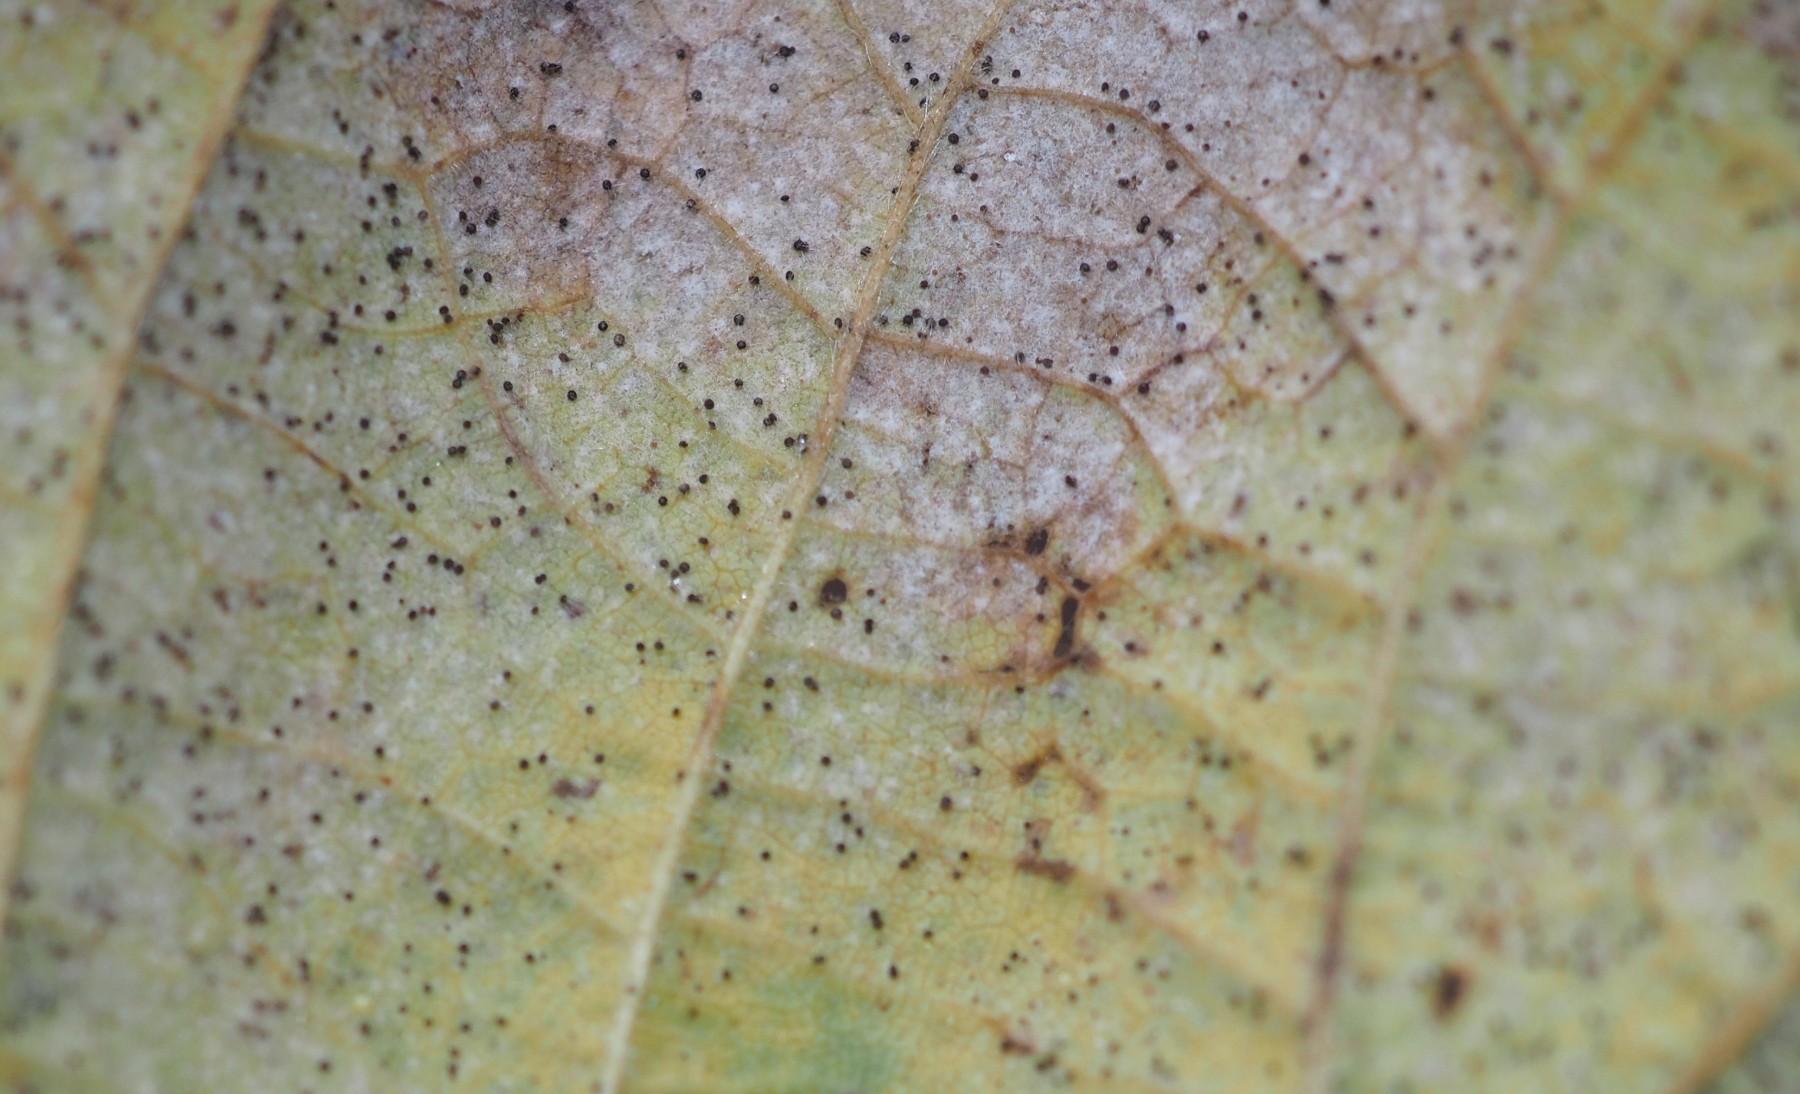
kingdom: Fungi
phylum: Ascomycota
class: Leotiomycetes
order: Helotiales
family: Erysiphaceae
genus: Phyllactinia
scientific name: Phyllactinia guttata
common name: hassel-meldug
